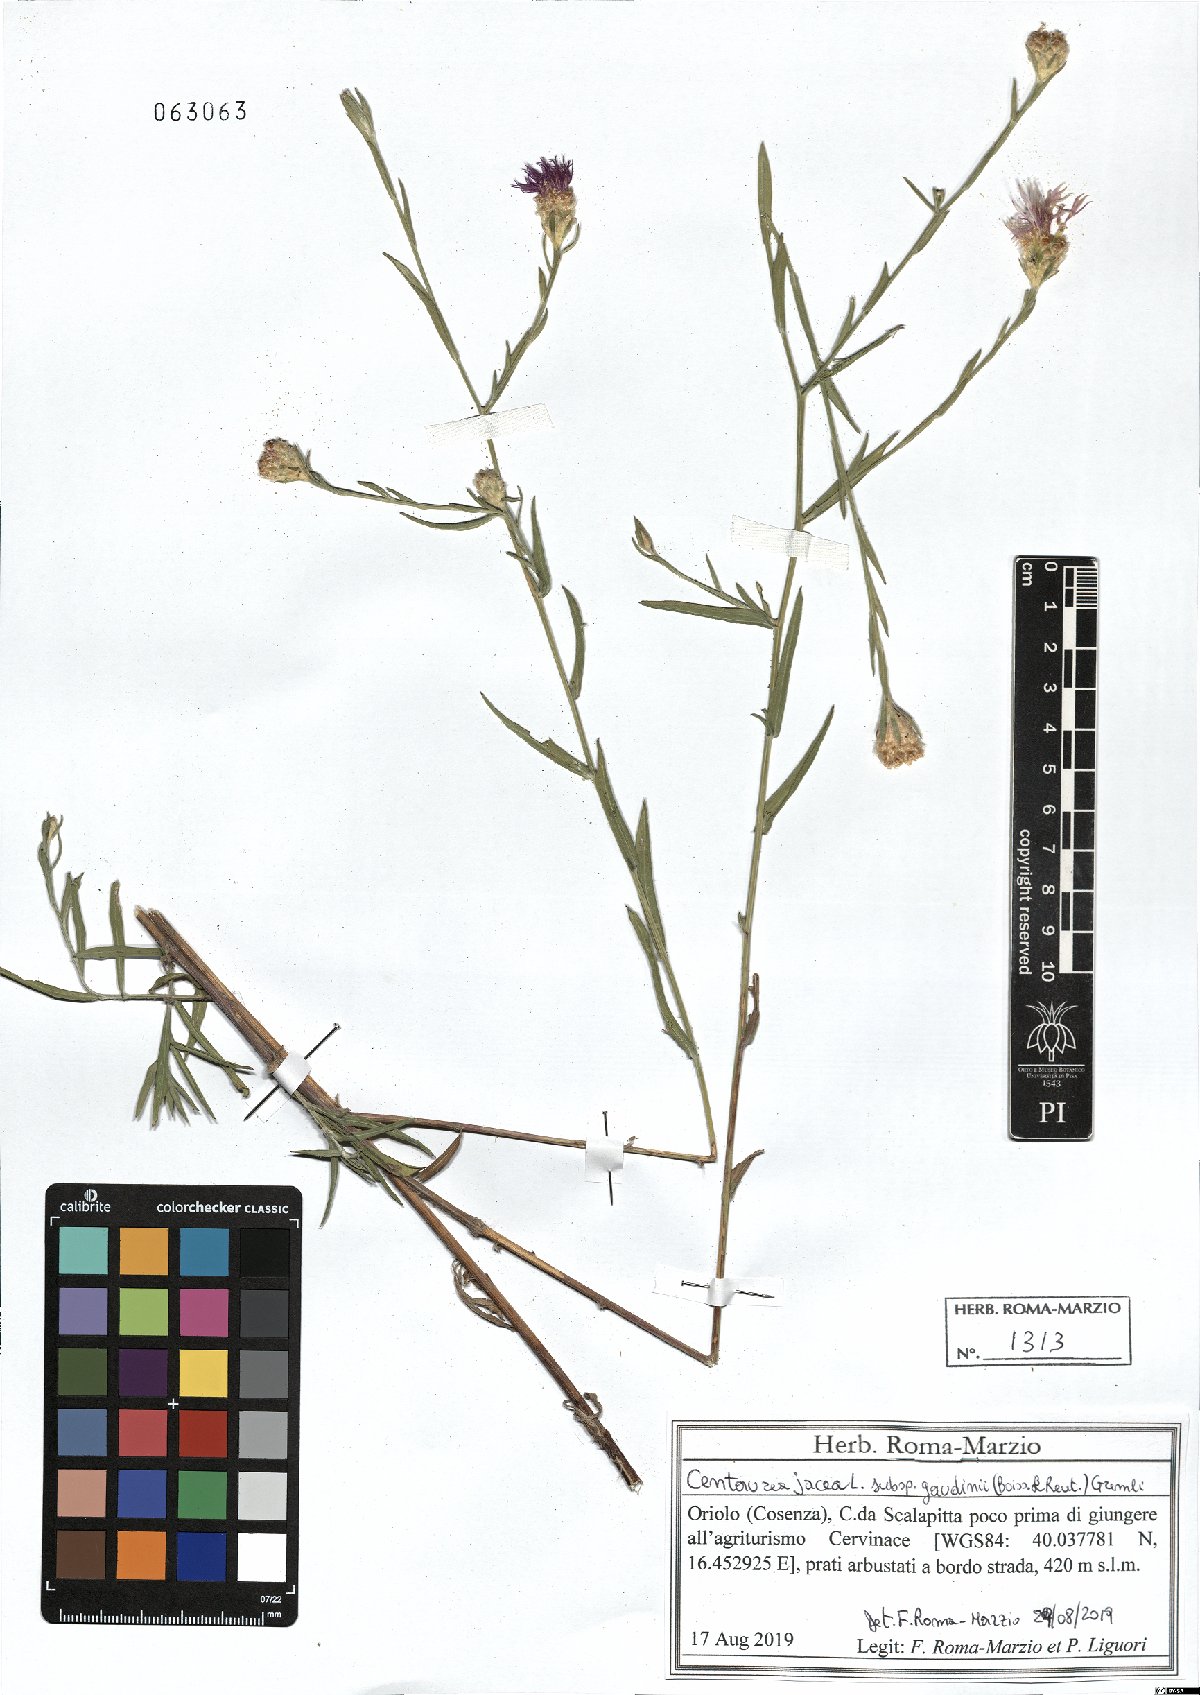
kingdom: Plantae
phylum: Tracheophyta
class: Magnoliopsida
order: Asterales
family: Asteraceae
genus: Centaurea
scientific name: Centaurea jacea
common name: Brown knapweed
